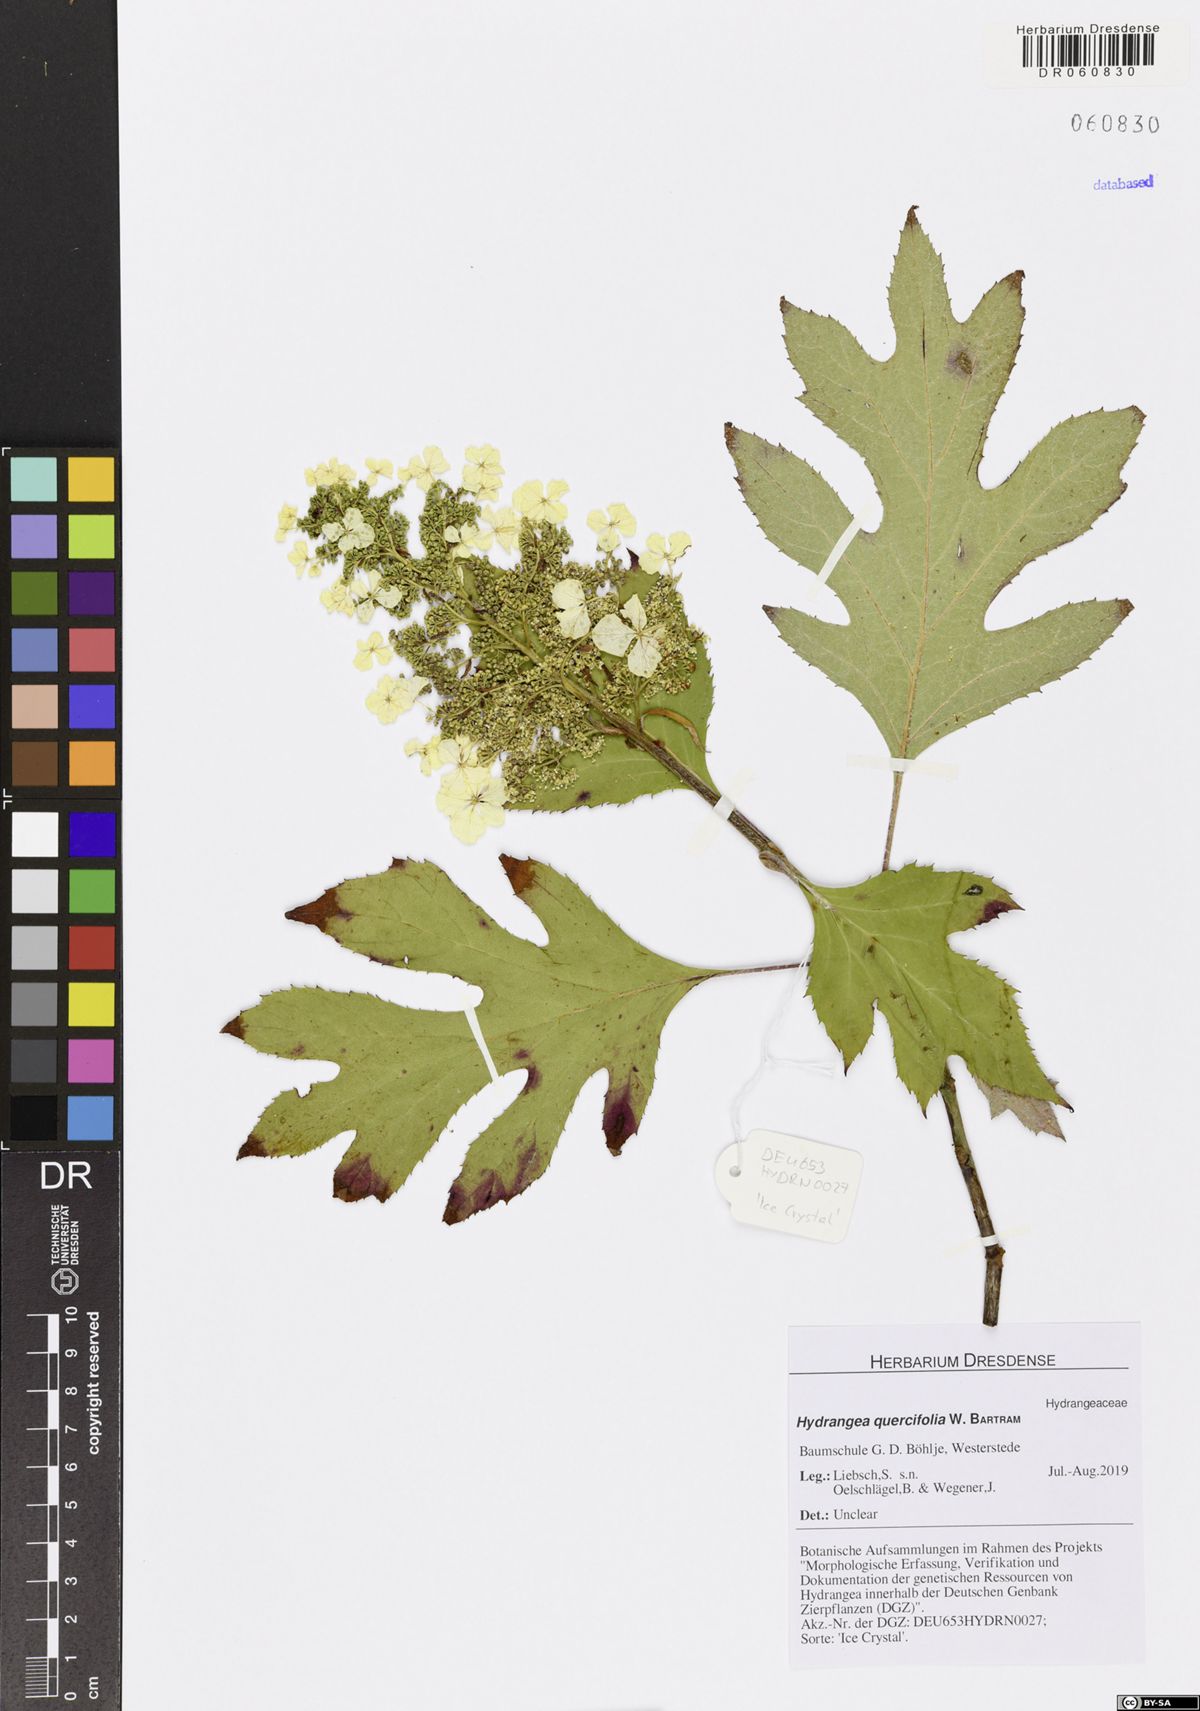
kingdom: Plantae
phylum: Tracheophyta
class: Magnoliopsida
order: Cornales
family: Hydrangeaceae
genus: Hydrangea
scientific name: Hydrangea quercifolia
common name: Oak-leaf hydrangea
